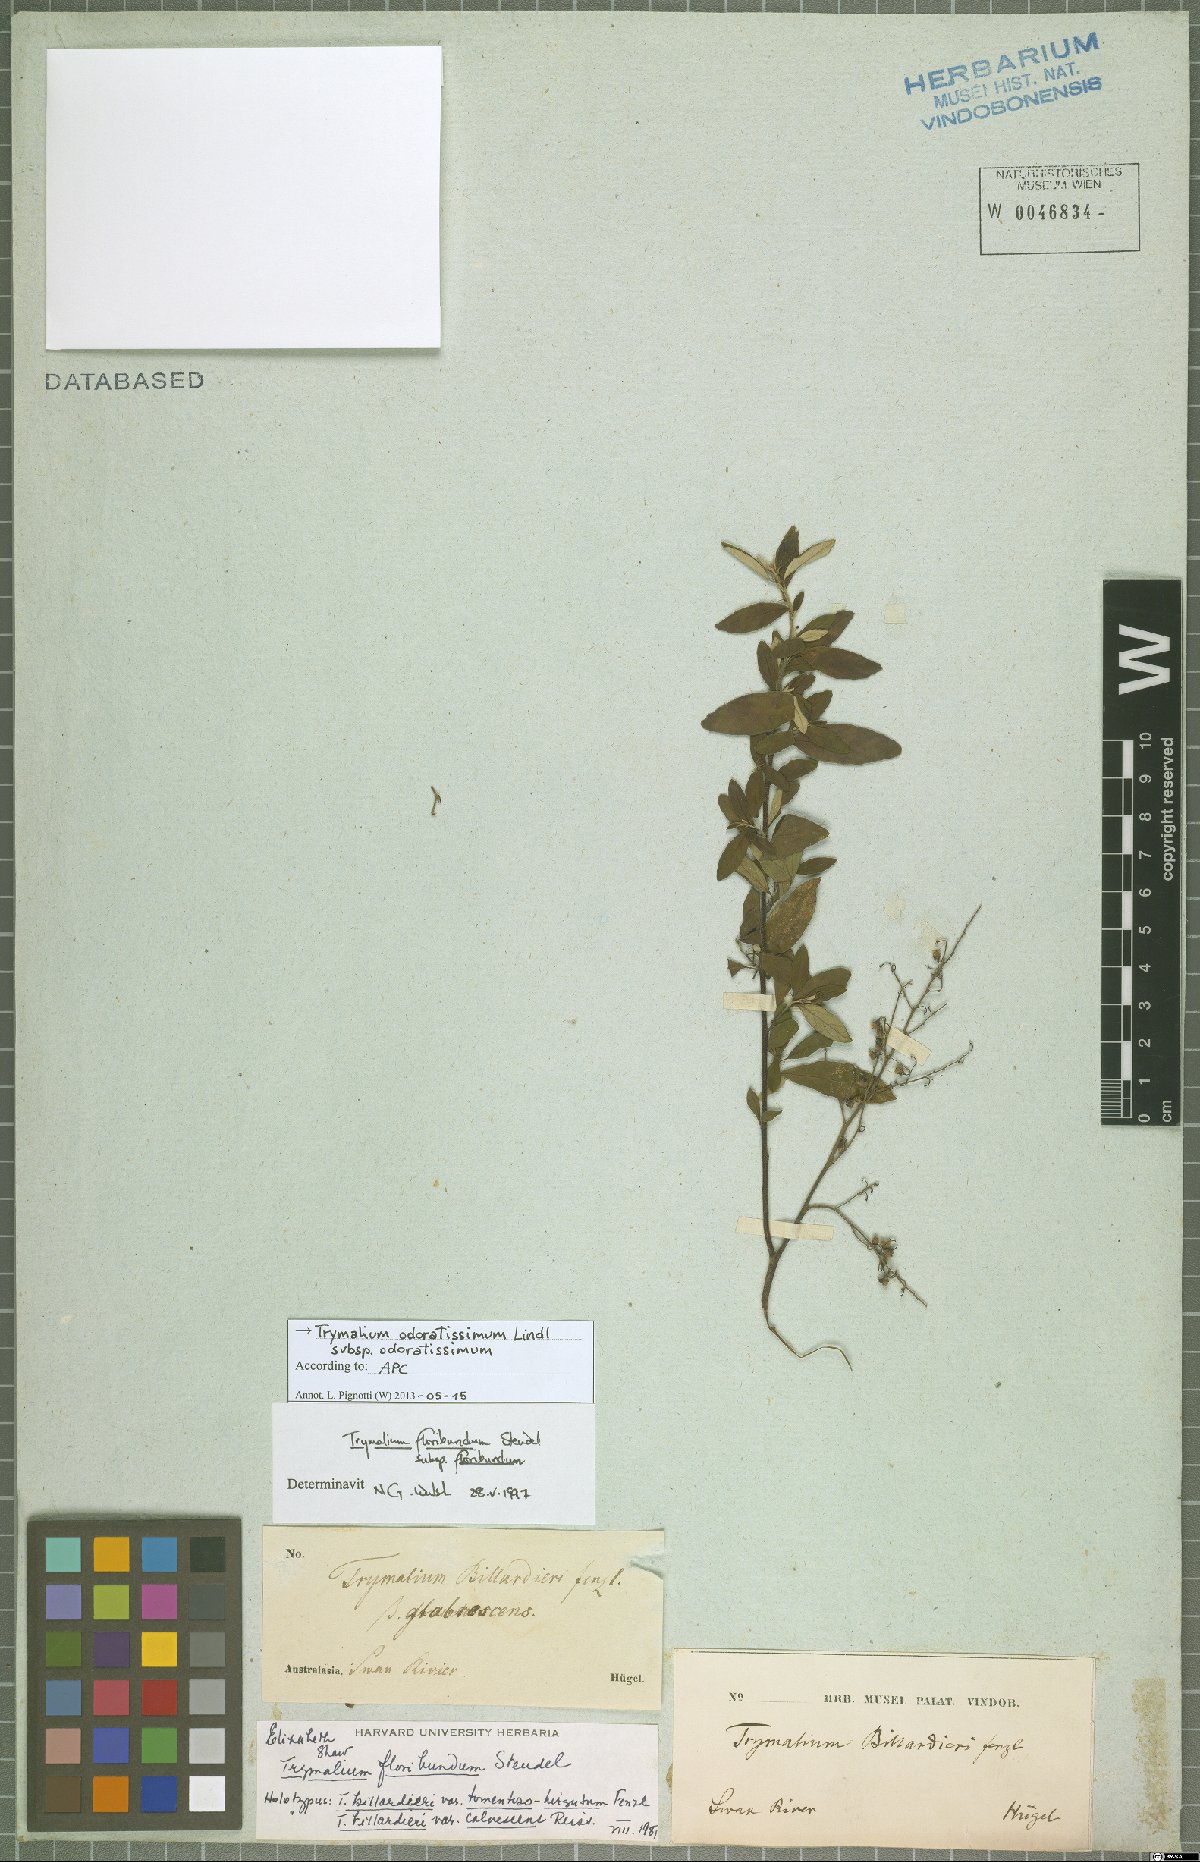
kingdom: Plantae
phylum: Tracheophyta
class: Magnoliopsida
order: Rosales
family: Rhamnaceae
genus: Trymalium
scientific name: Trymalium odoratissimum
